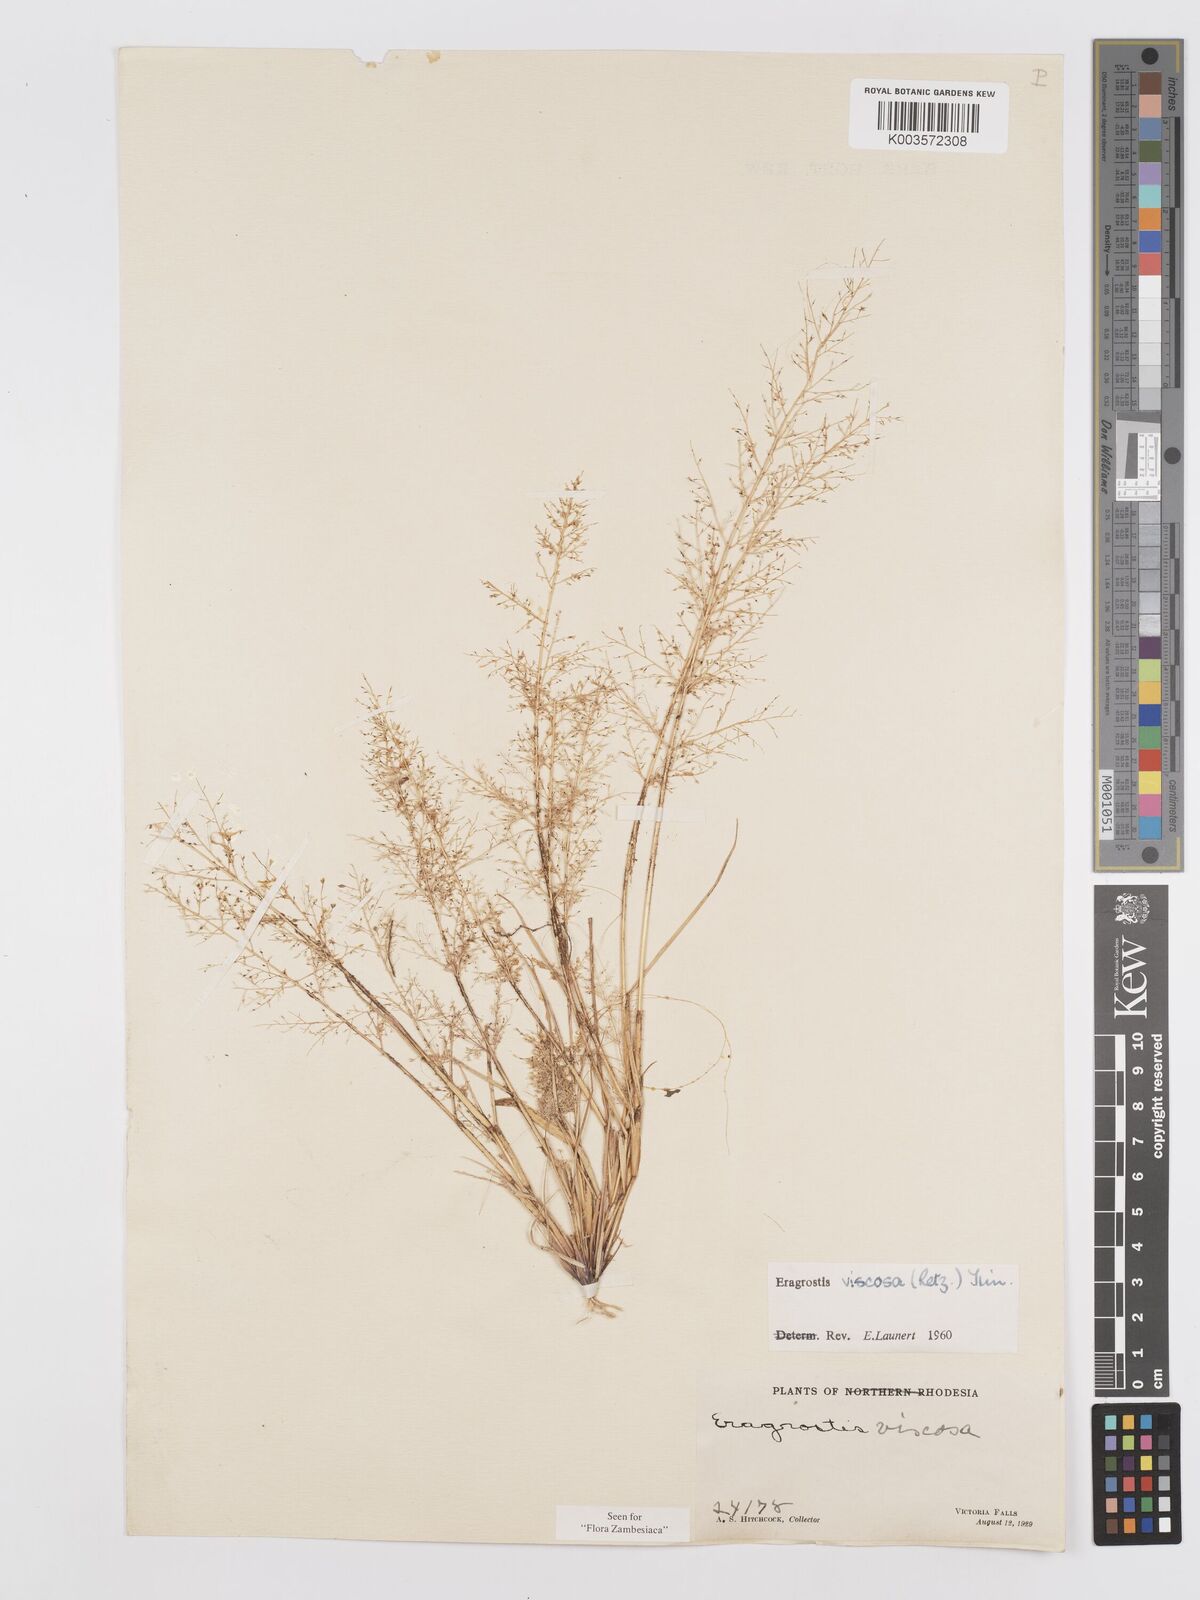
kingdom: Plantae
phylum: Tracheophyta
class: Liliopsida
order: Poales
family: Poaceae
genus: Eragrostis
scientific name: Eragrostis
